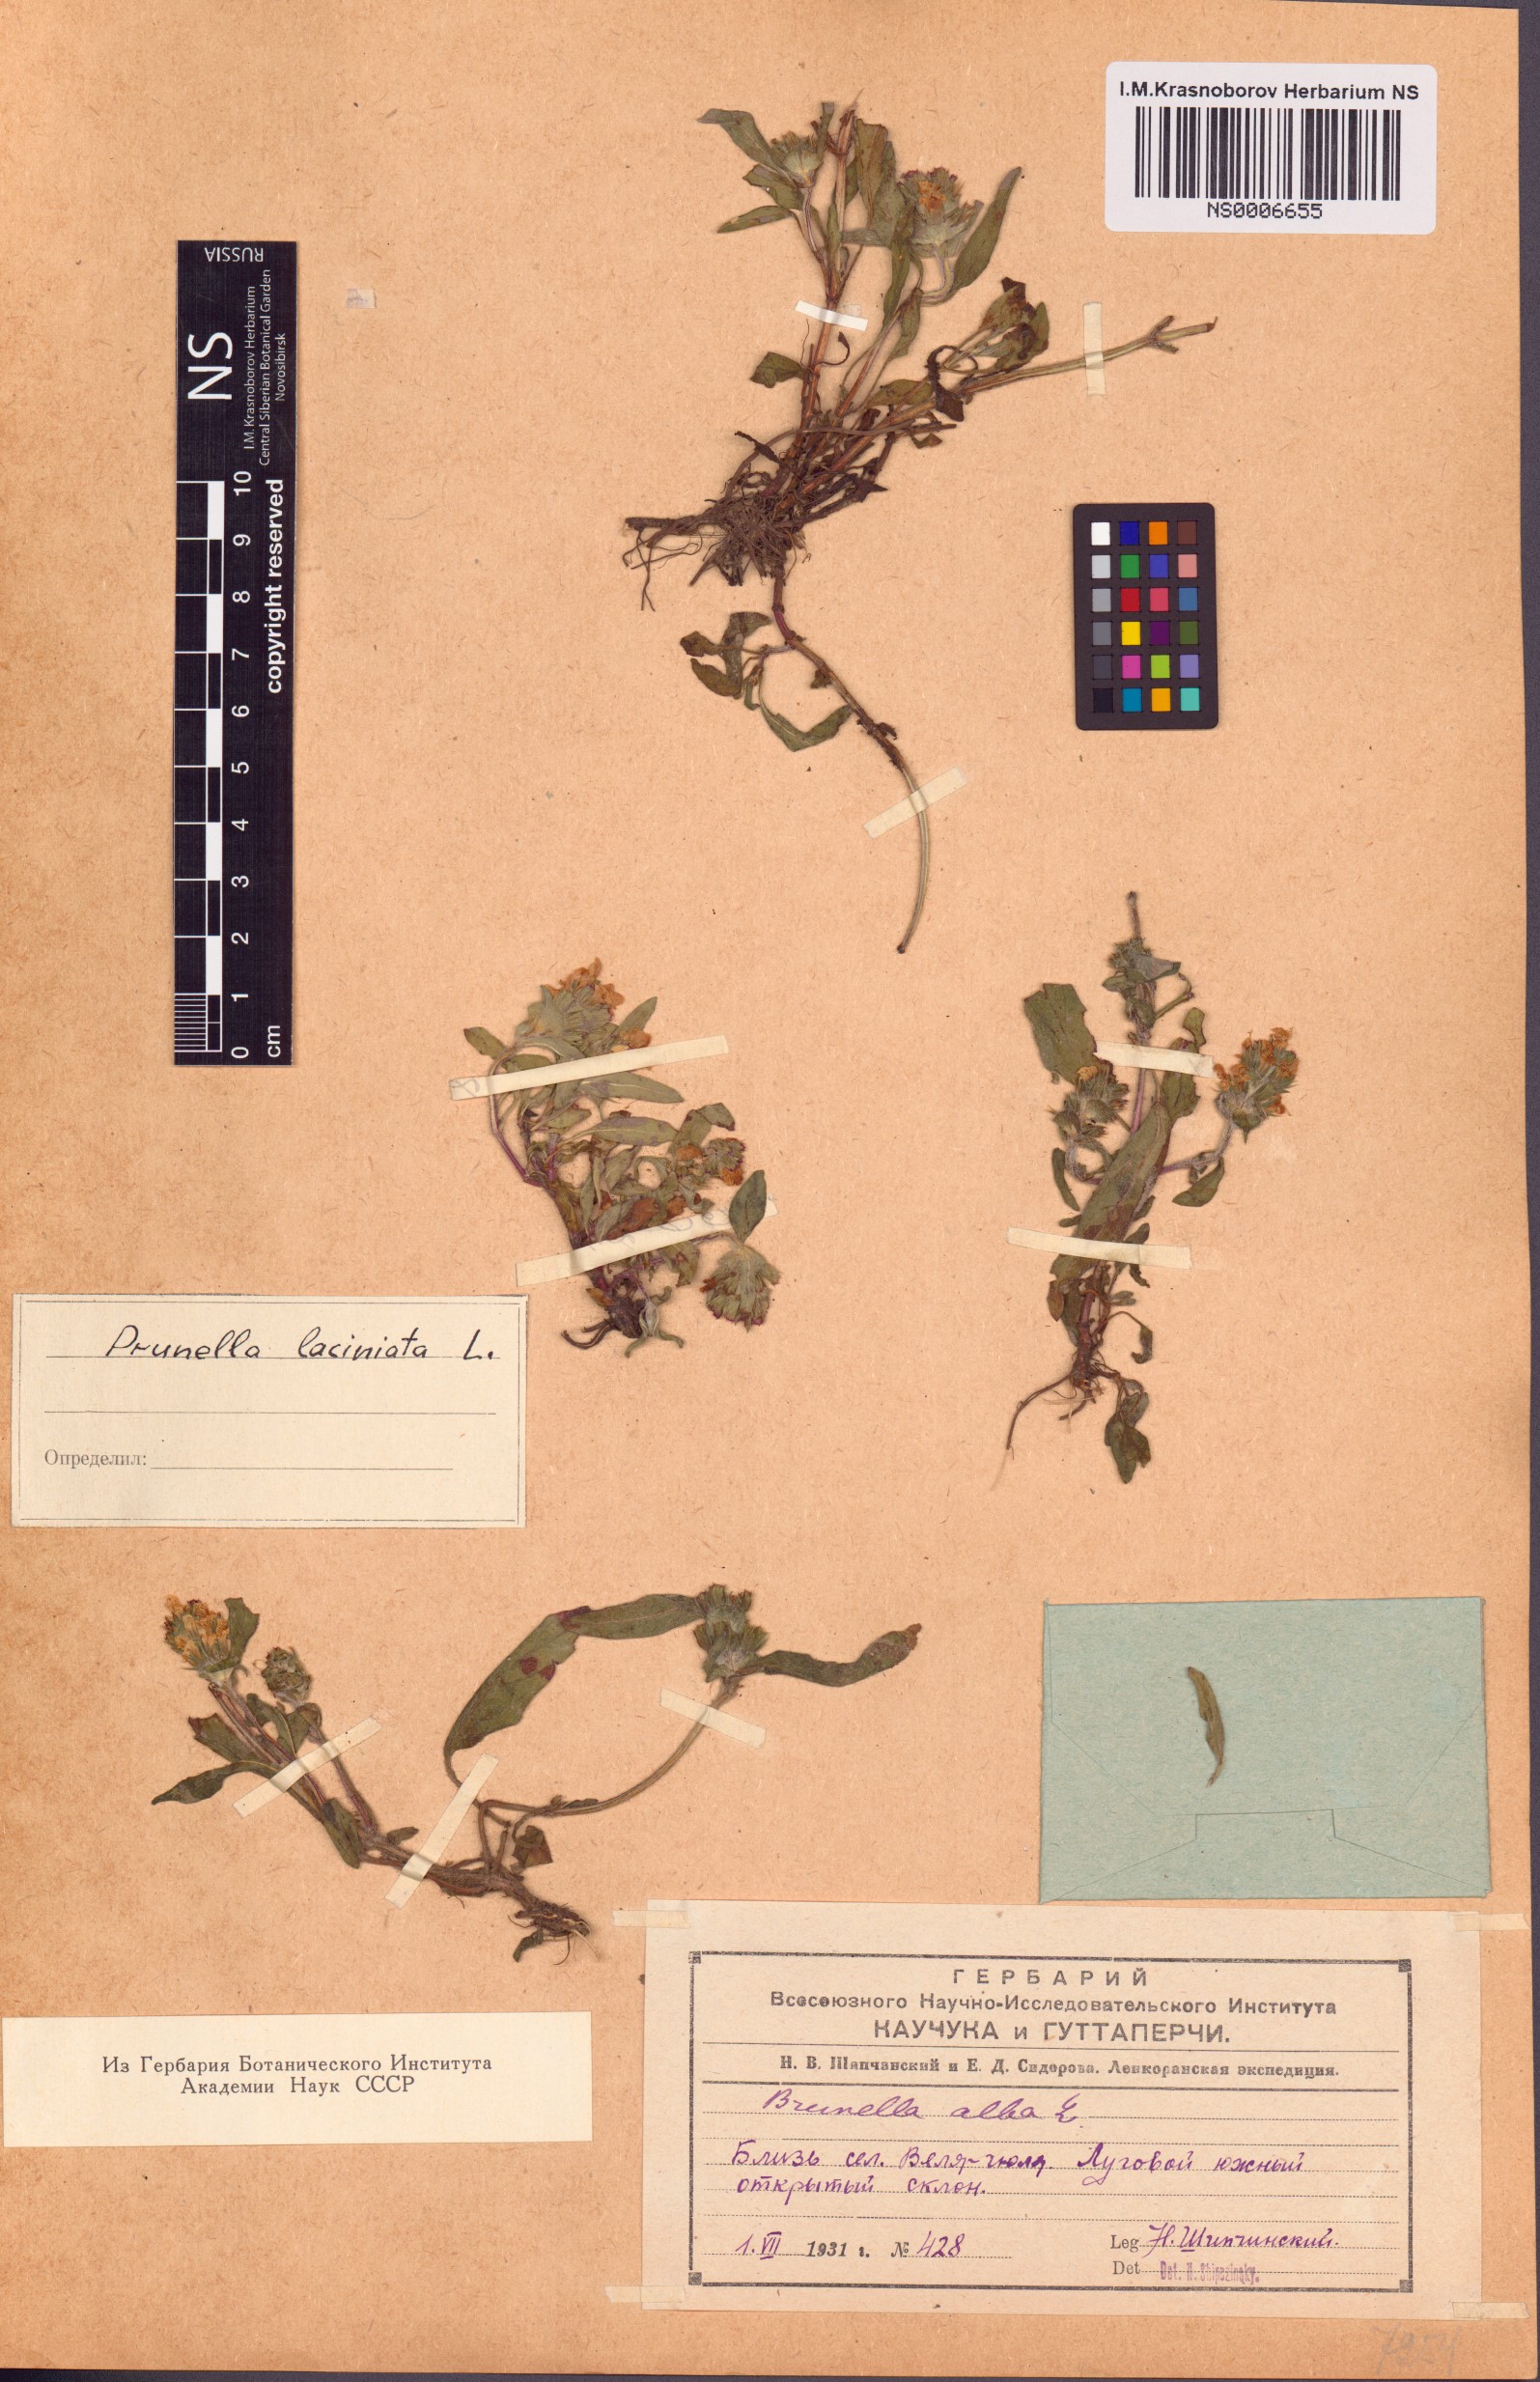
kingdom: Plantae
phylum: Tracheophyta
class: Magnoliopsida
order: Lamiales
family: Lamiaceae
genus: Prunella
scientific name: Prunella laciniata
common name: Cut-leaved selfheal
